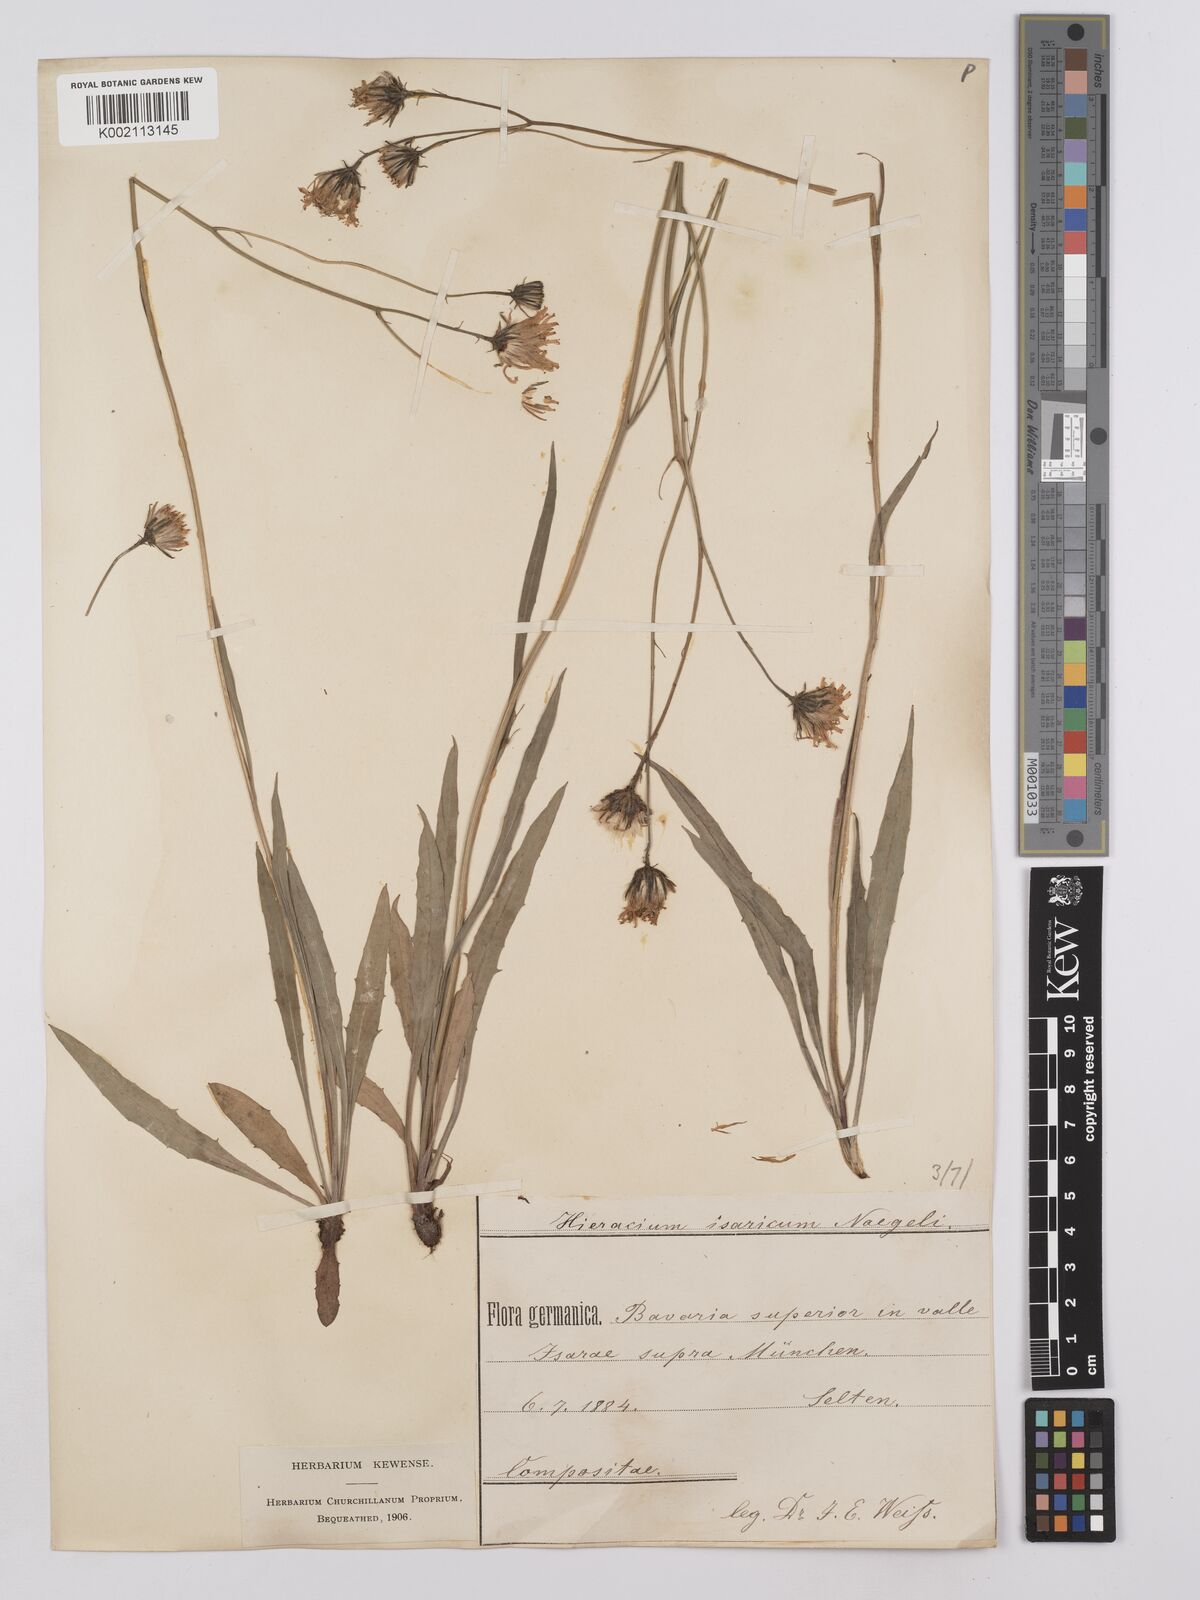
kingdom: Plantae
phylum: Tracheophyta
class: Magnoliopsida
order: Asterales
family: Asteraceae
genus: Hieracium
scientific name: Hieracium glaucum
